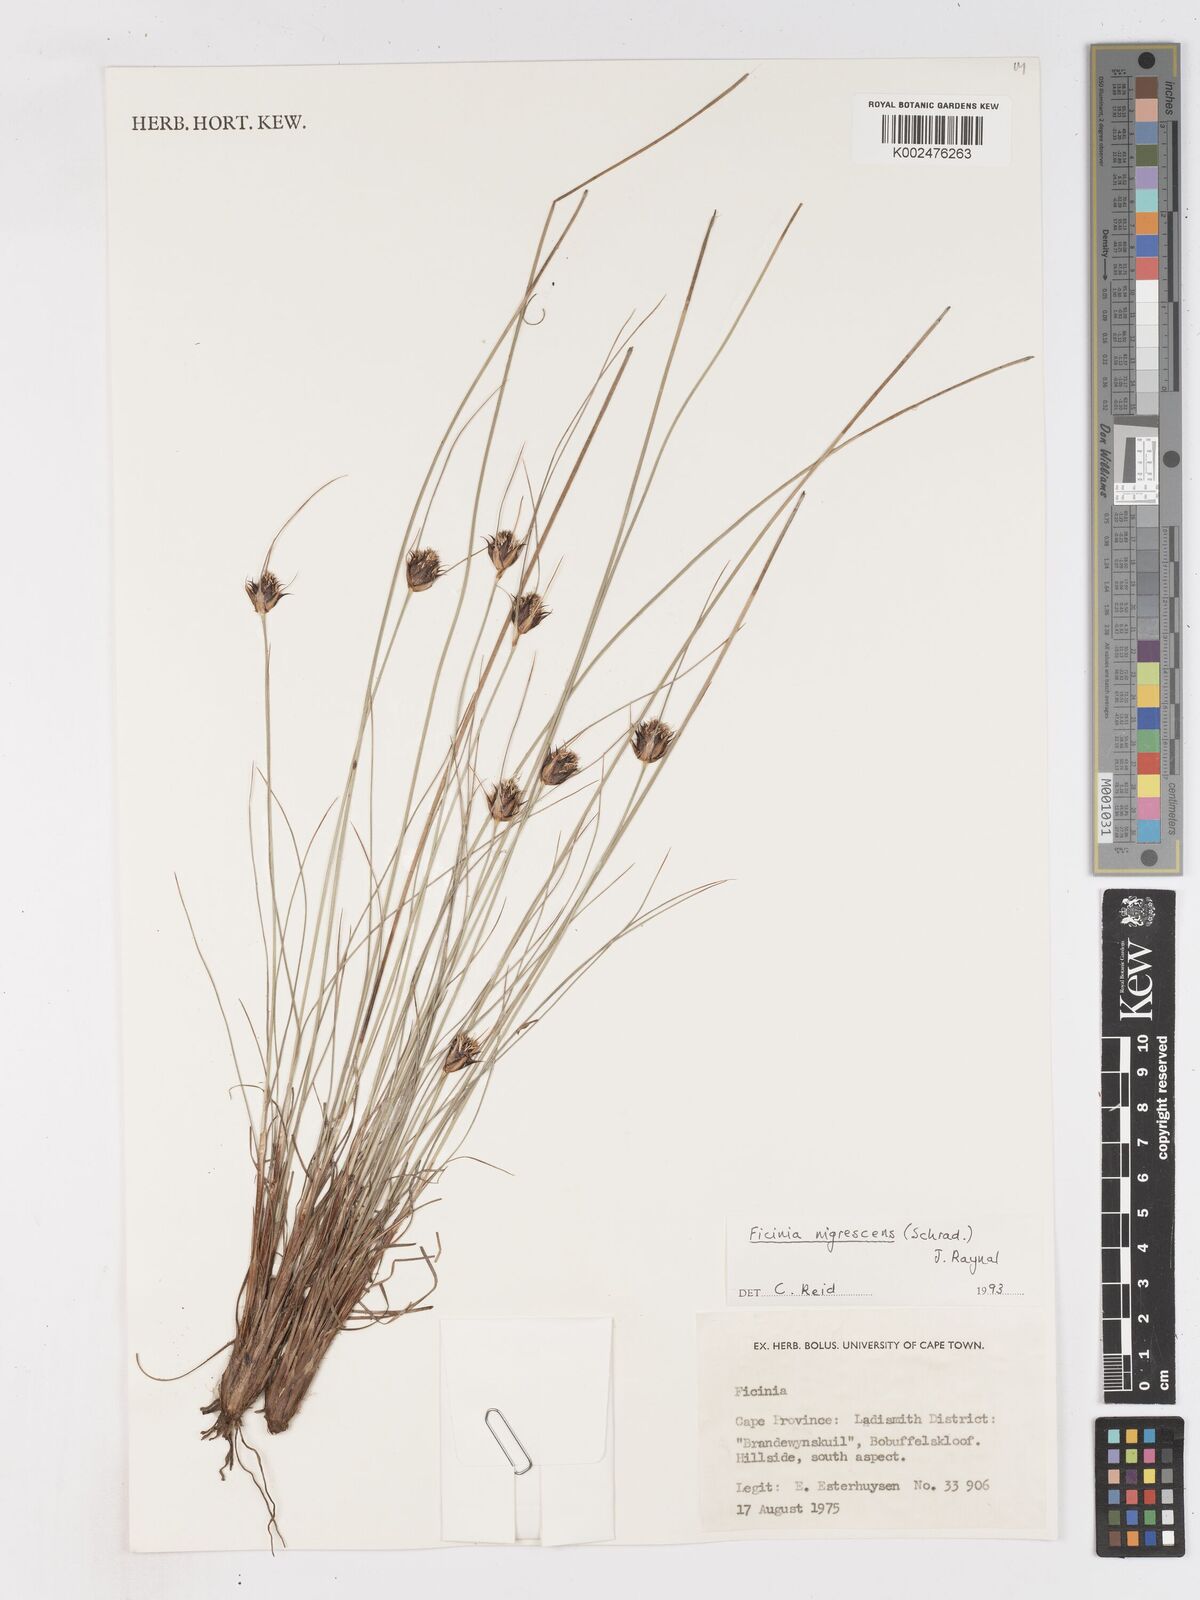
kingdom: Plantae
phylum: Tracheophyta
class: Liliopsida
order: Poales
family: Cyperaceae
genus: Ficinia
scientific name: Ficinia nigrescens
